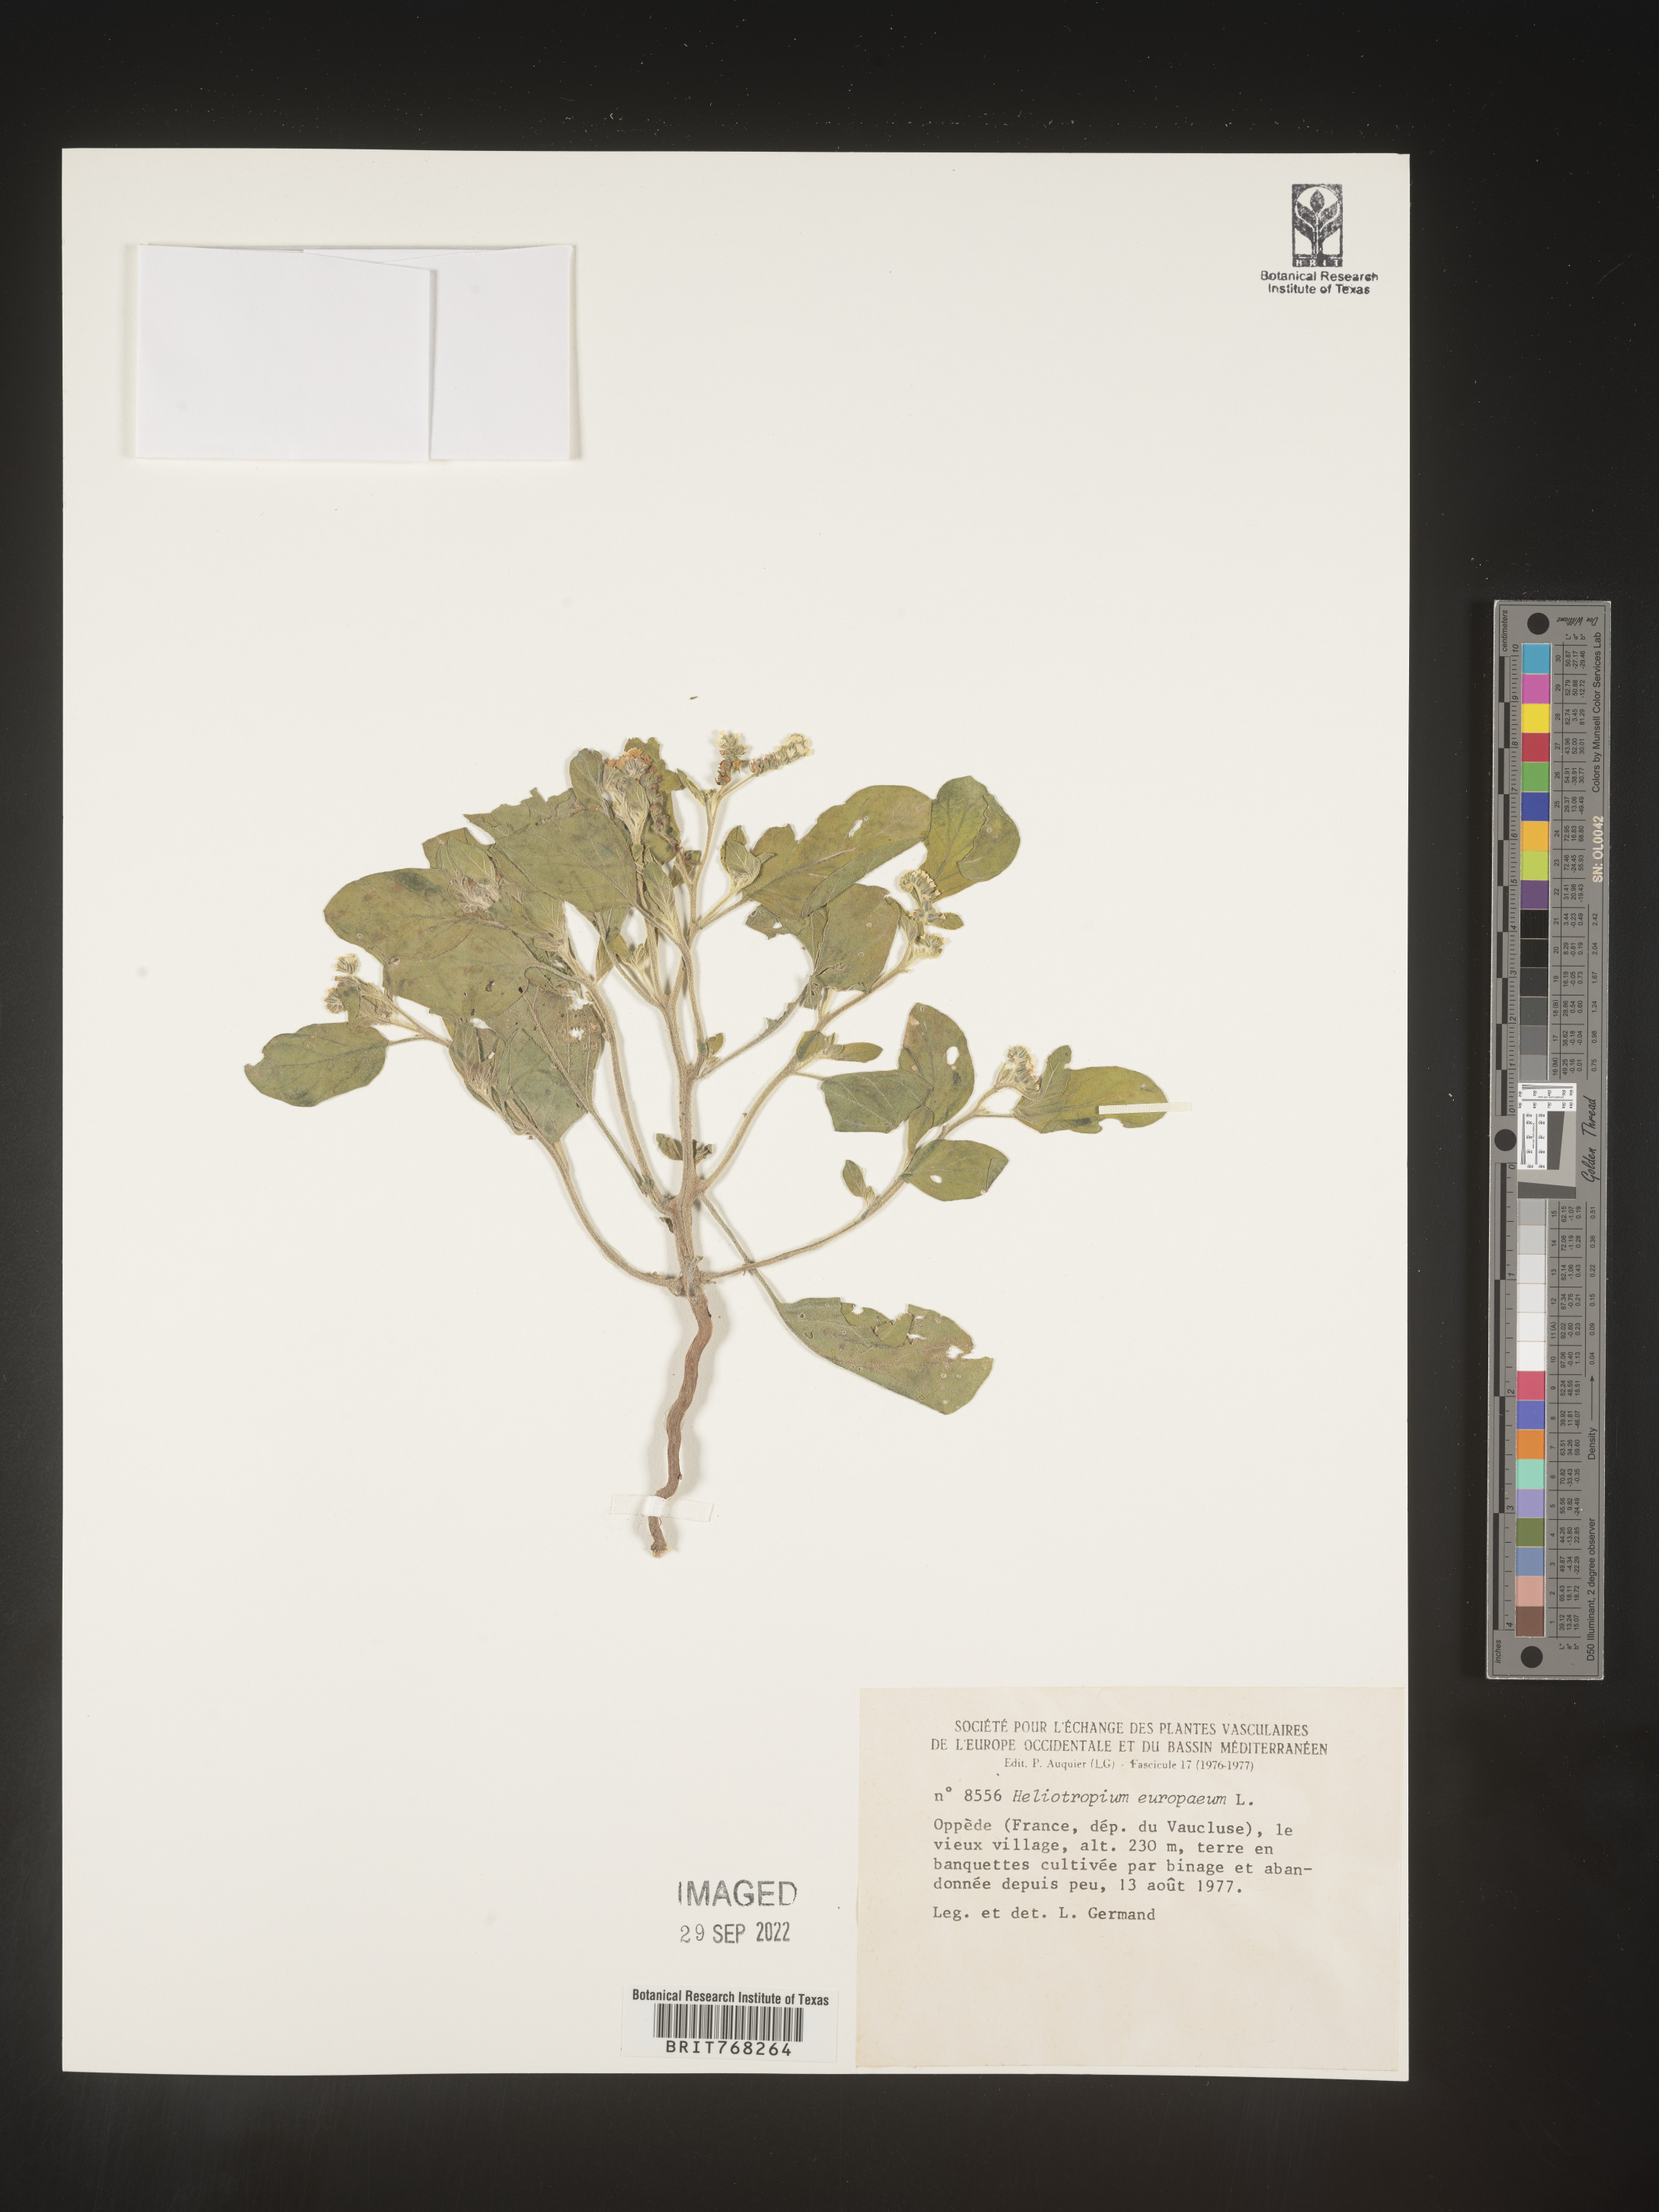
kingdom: Plantae
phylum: Tracheophyta
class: Magnoliopsida
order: Boraginales
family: Heliotropiaceae
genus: Heliotropium
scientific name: Heliotropium
